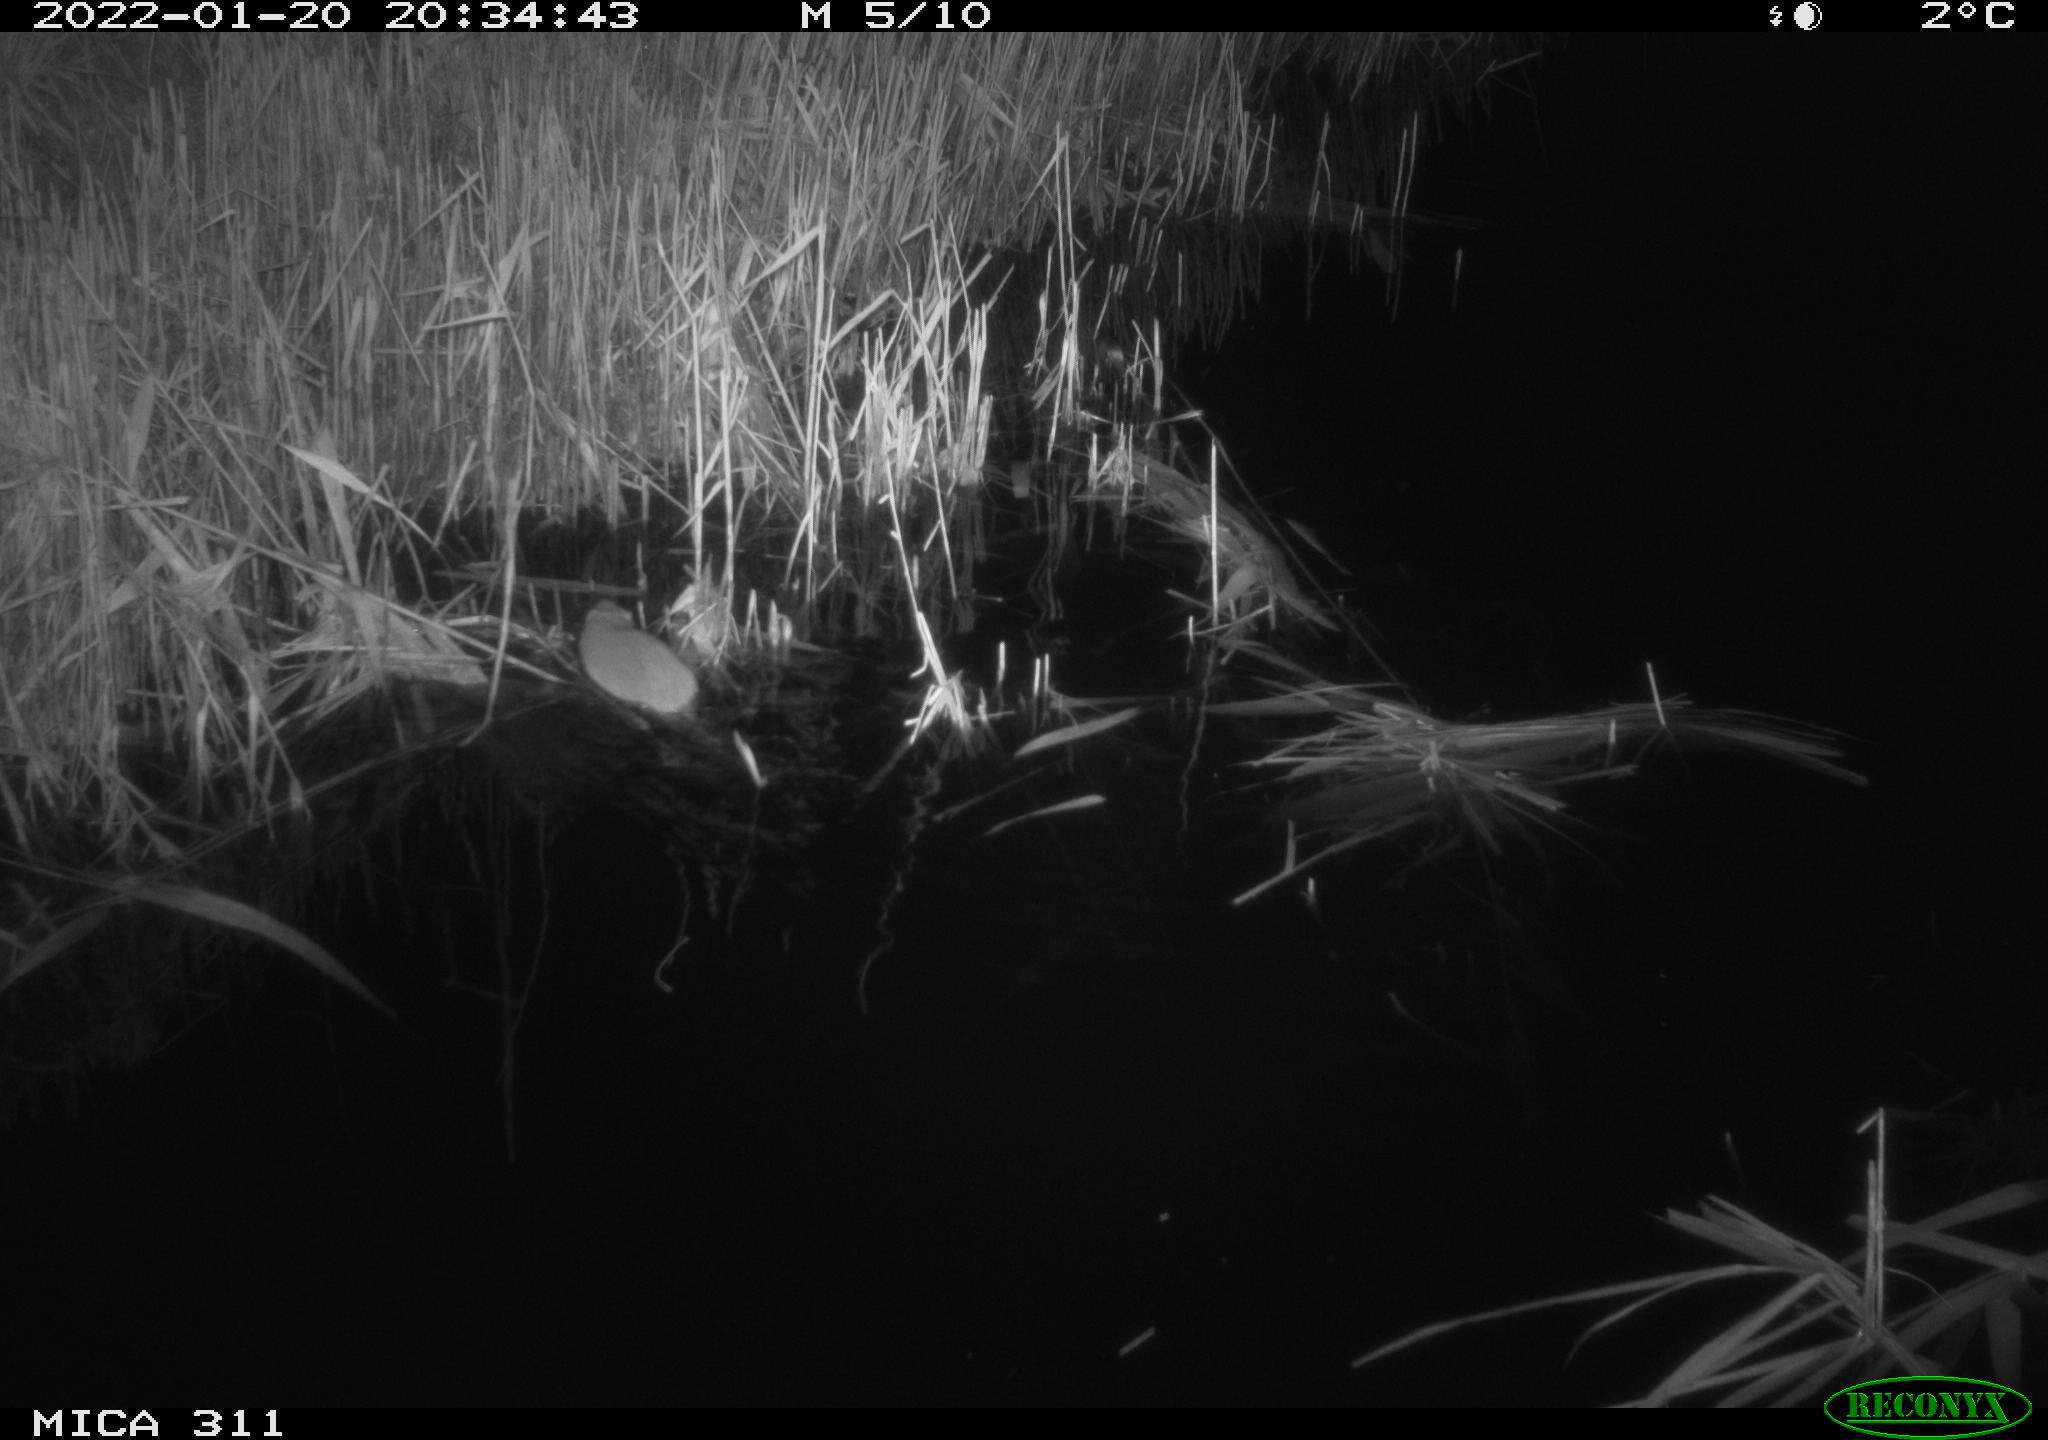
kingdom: Animalia
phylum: Chordata
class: Mammalia
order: Rodentia
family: Muridae
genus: Rattus
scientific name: Rattus norvegicus
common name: Brown rat
